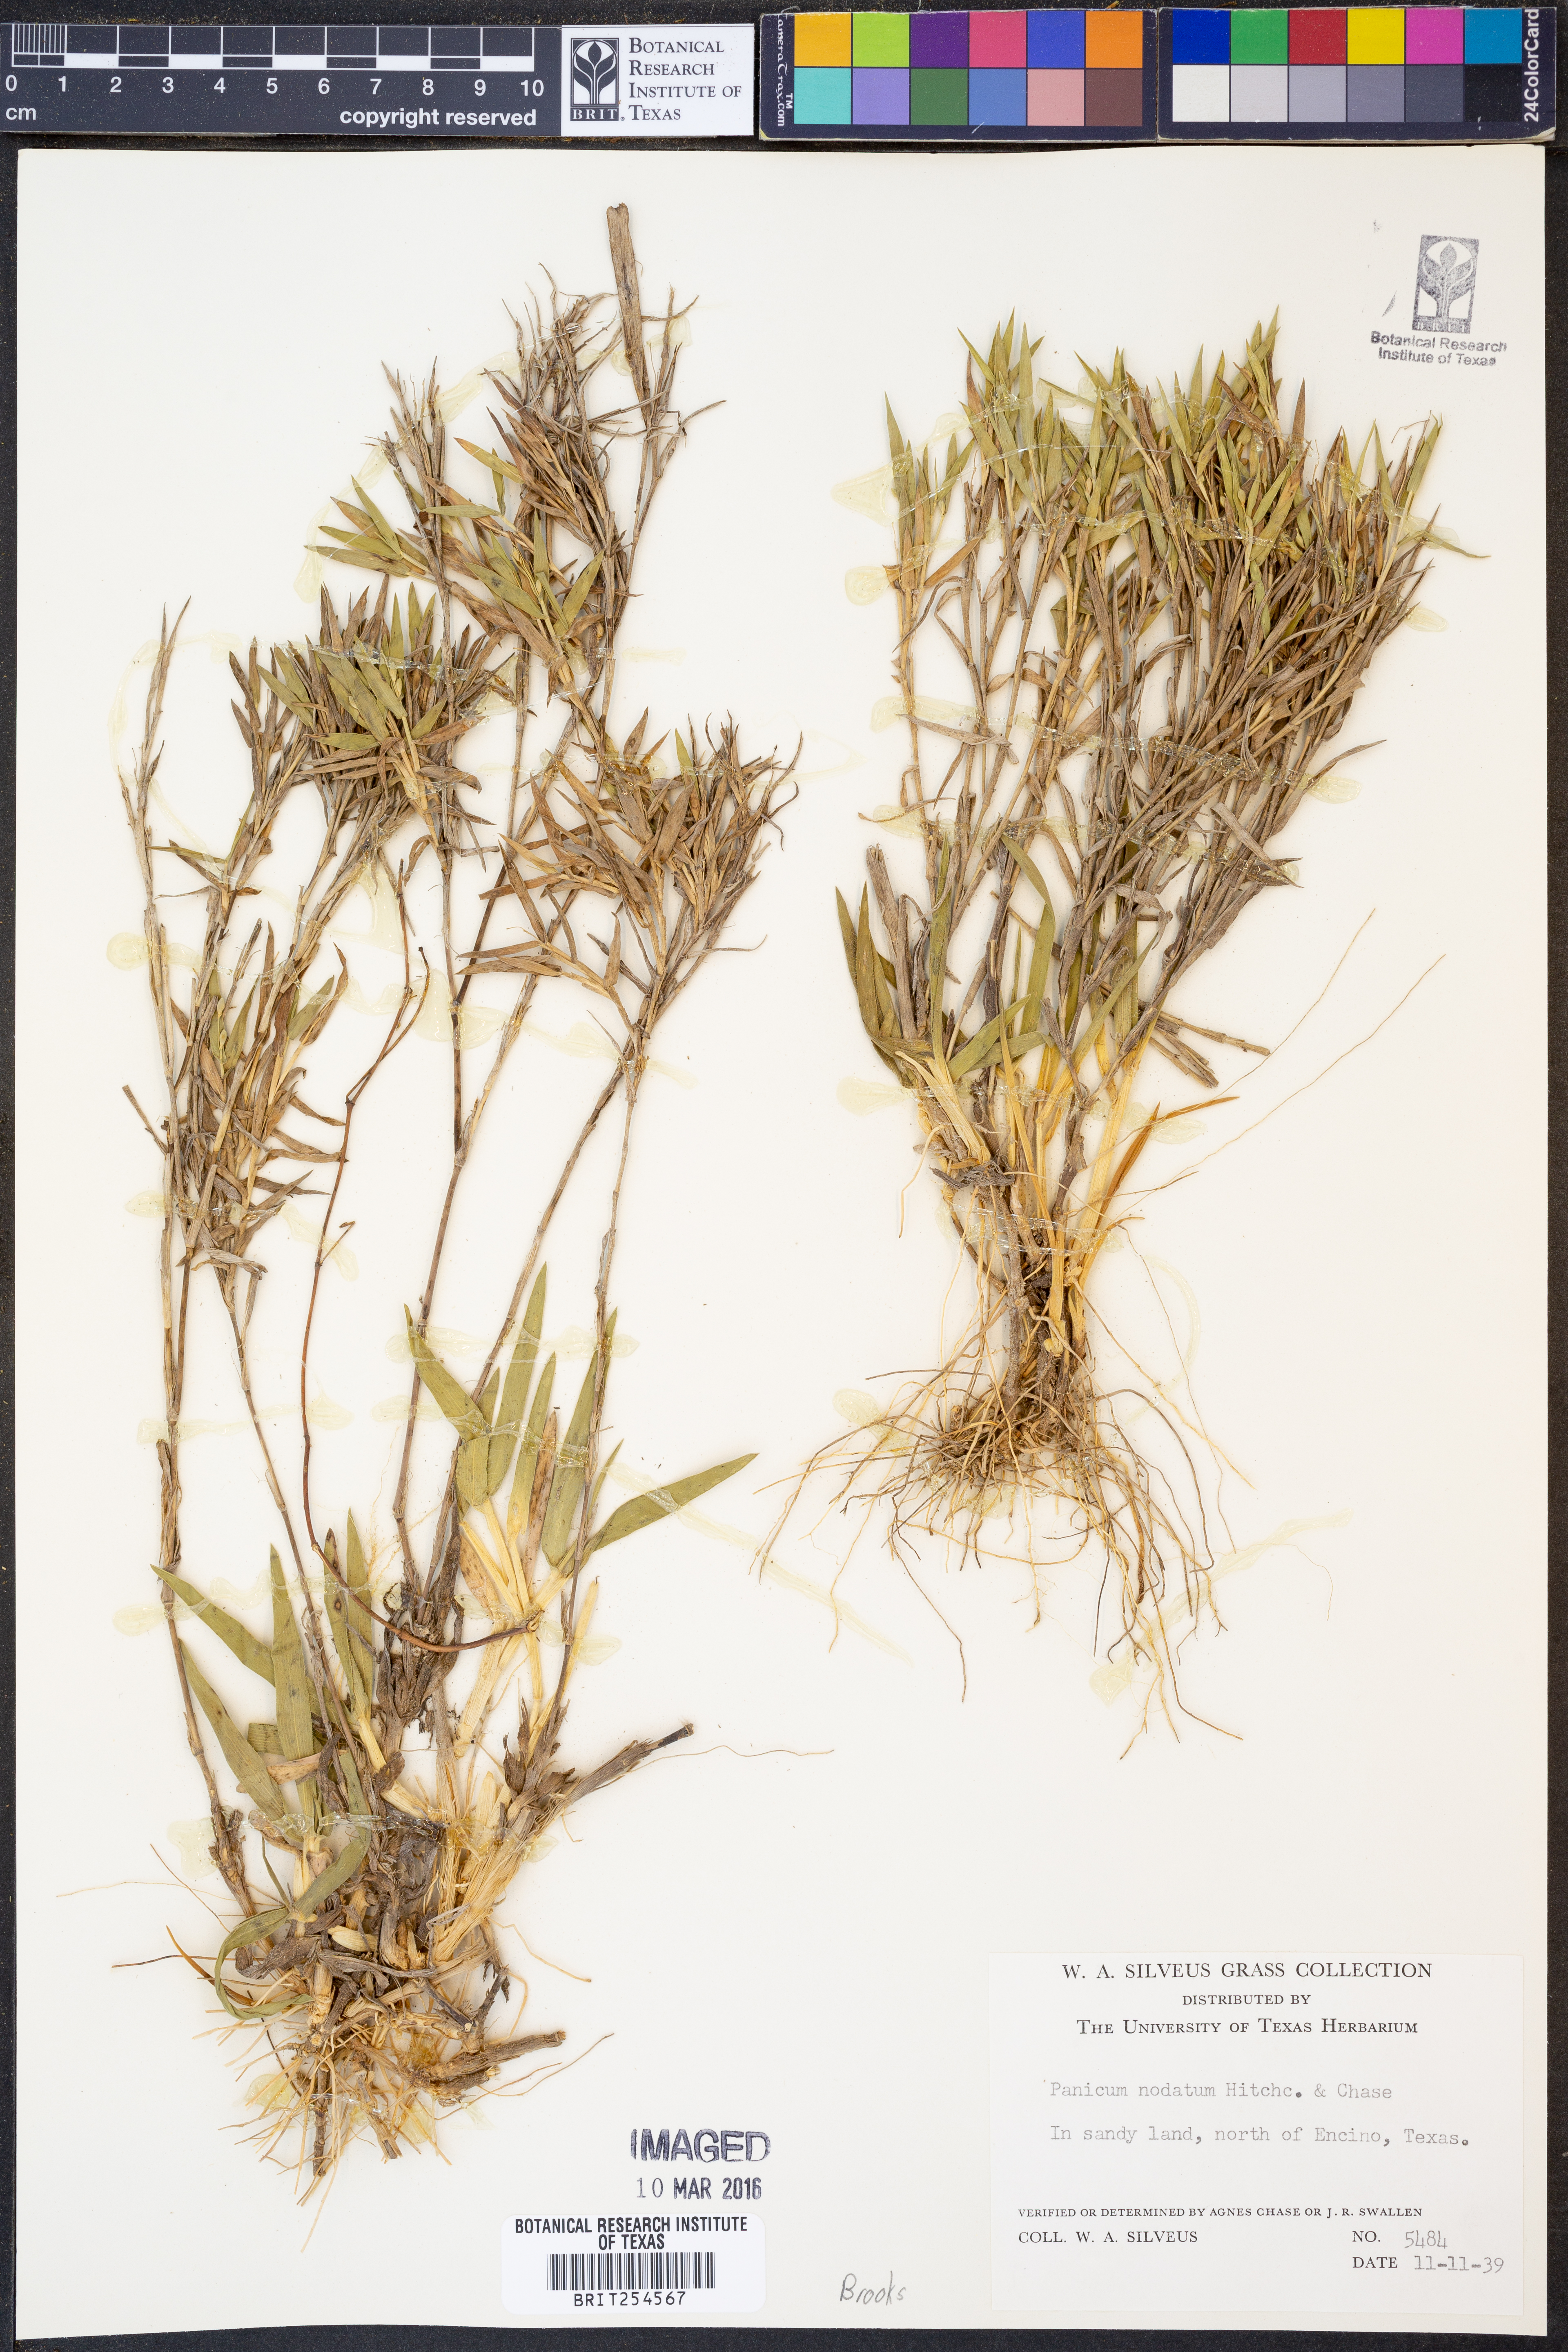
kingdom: Plantae
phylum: Tracheophyta
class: Liliopsida
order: Poales
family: Poaceae
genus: Dichanthelium
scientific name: Dichanthelium nodatum
